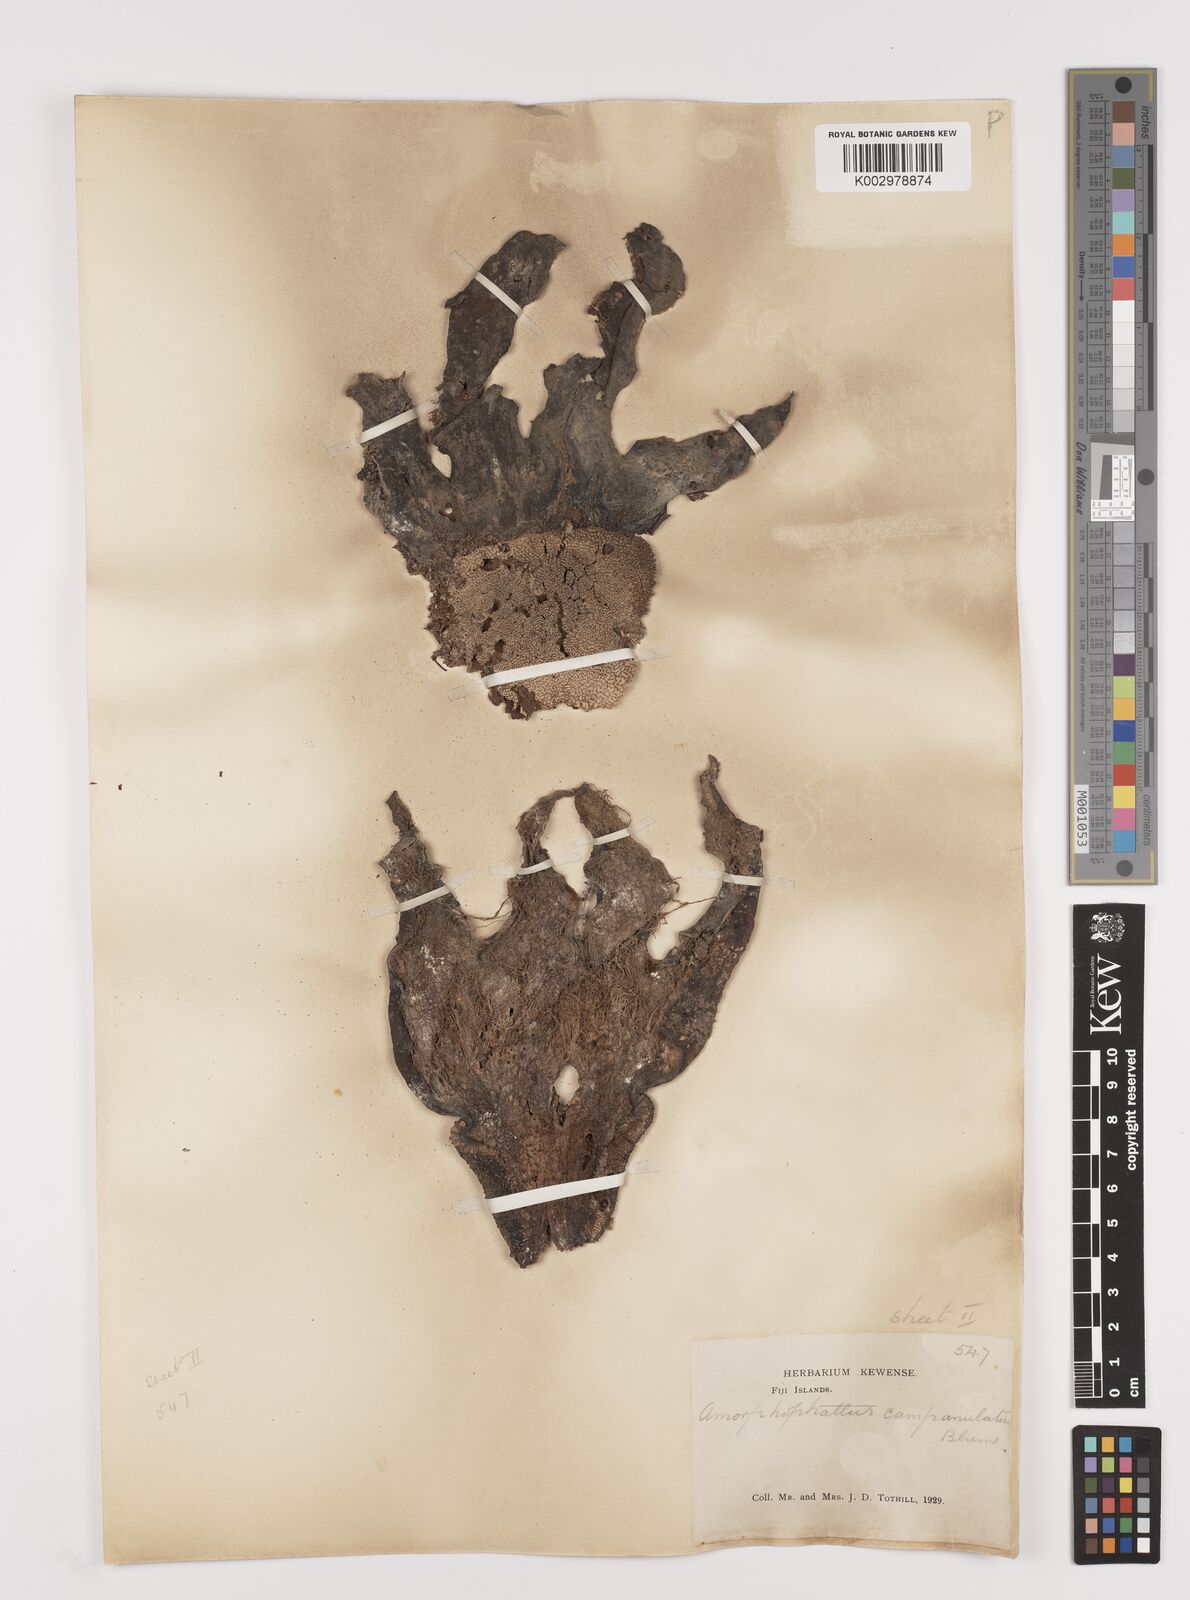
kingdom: Plantae
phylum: Tracheophyta
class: Liliopsida
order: Alismatales
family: Araceae
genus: Amorphophallus
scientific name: Amorphophallus paeoniifolius
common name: Telinga-potato
